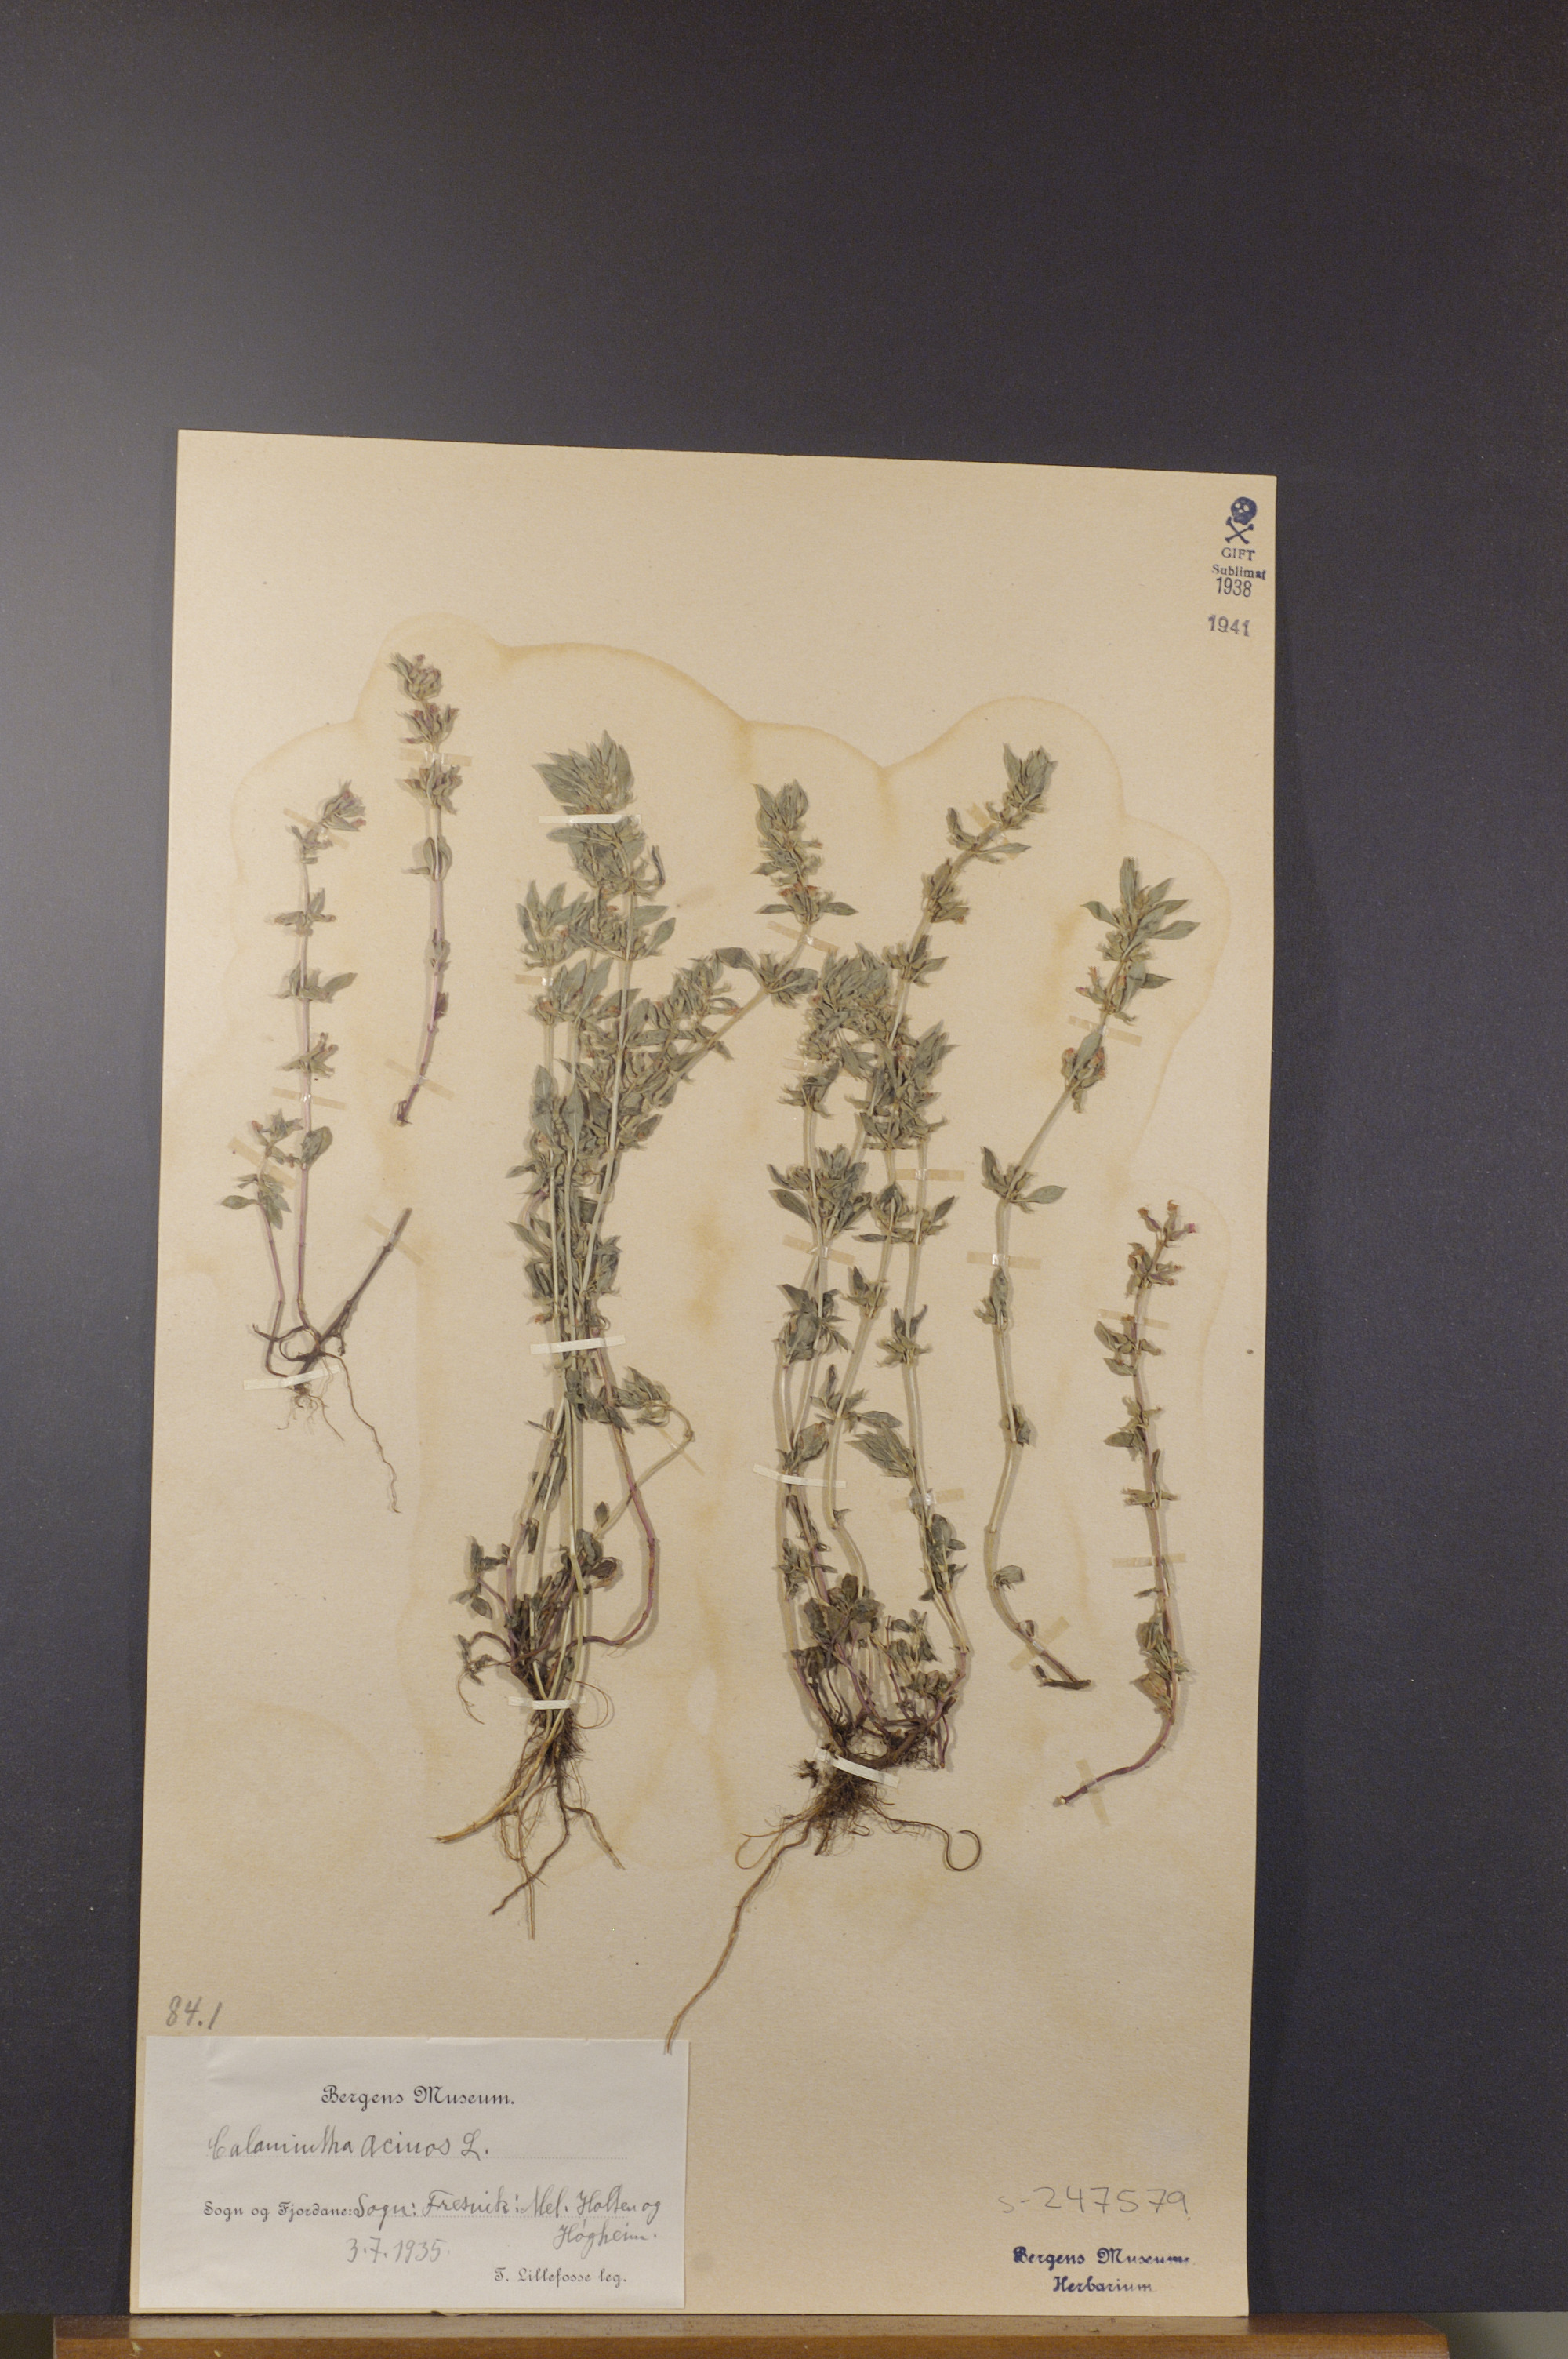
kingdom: Plantae
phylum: Tracheophyta
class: Magnoliopsida
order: Lamiales
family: Lamiaceae
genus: Clinopodium
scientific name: Clinopodium acinos
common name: Basil thyme
